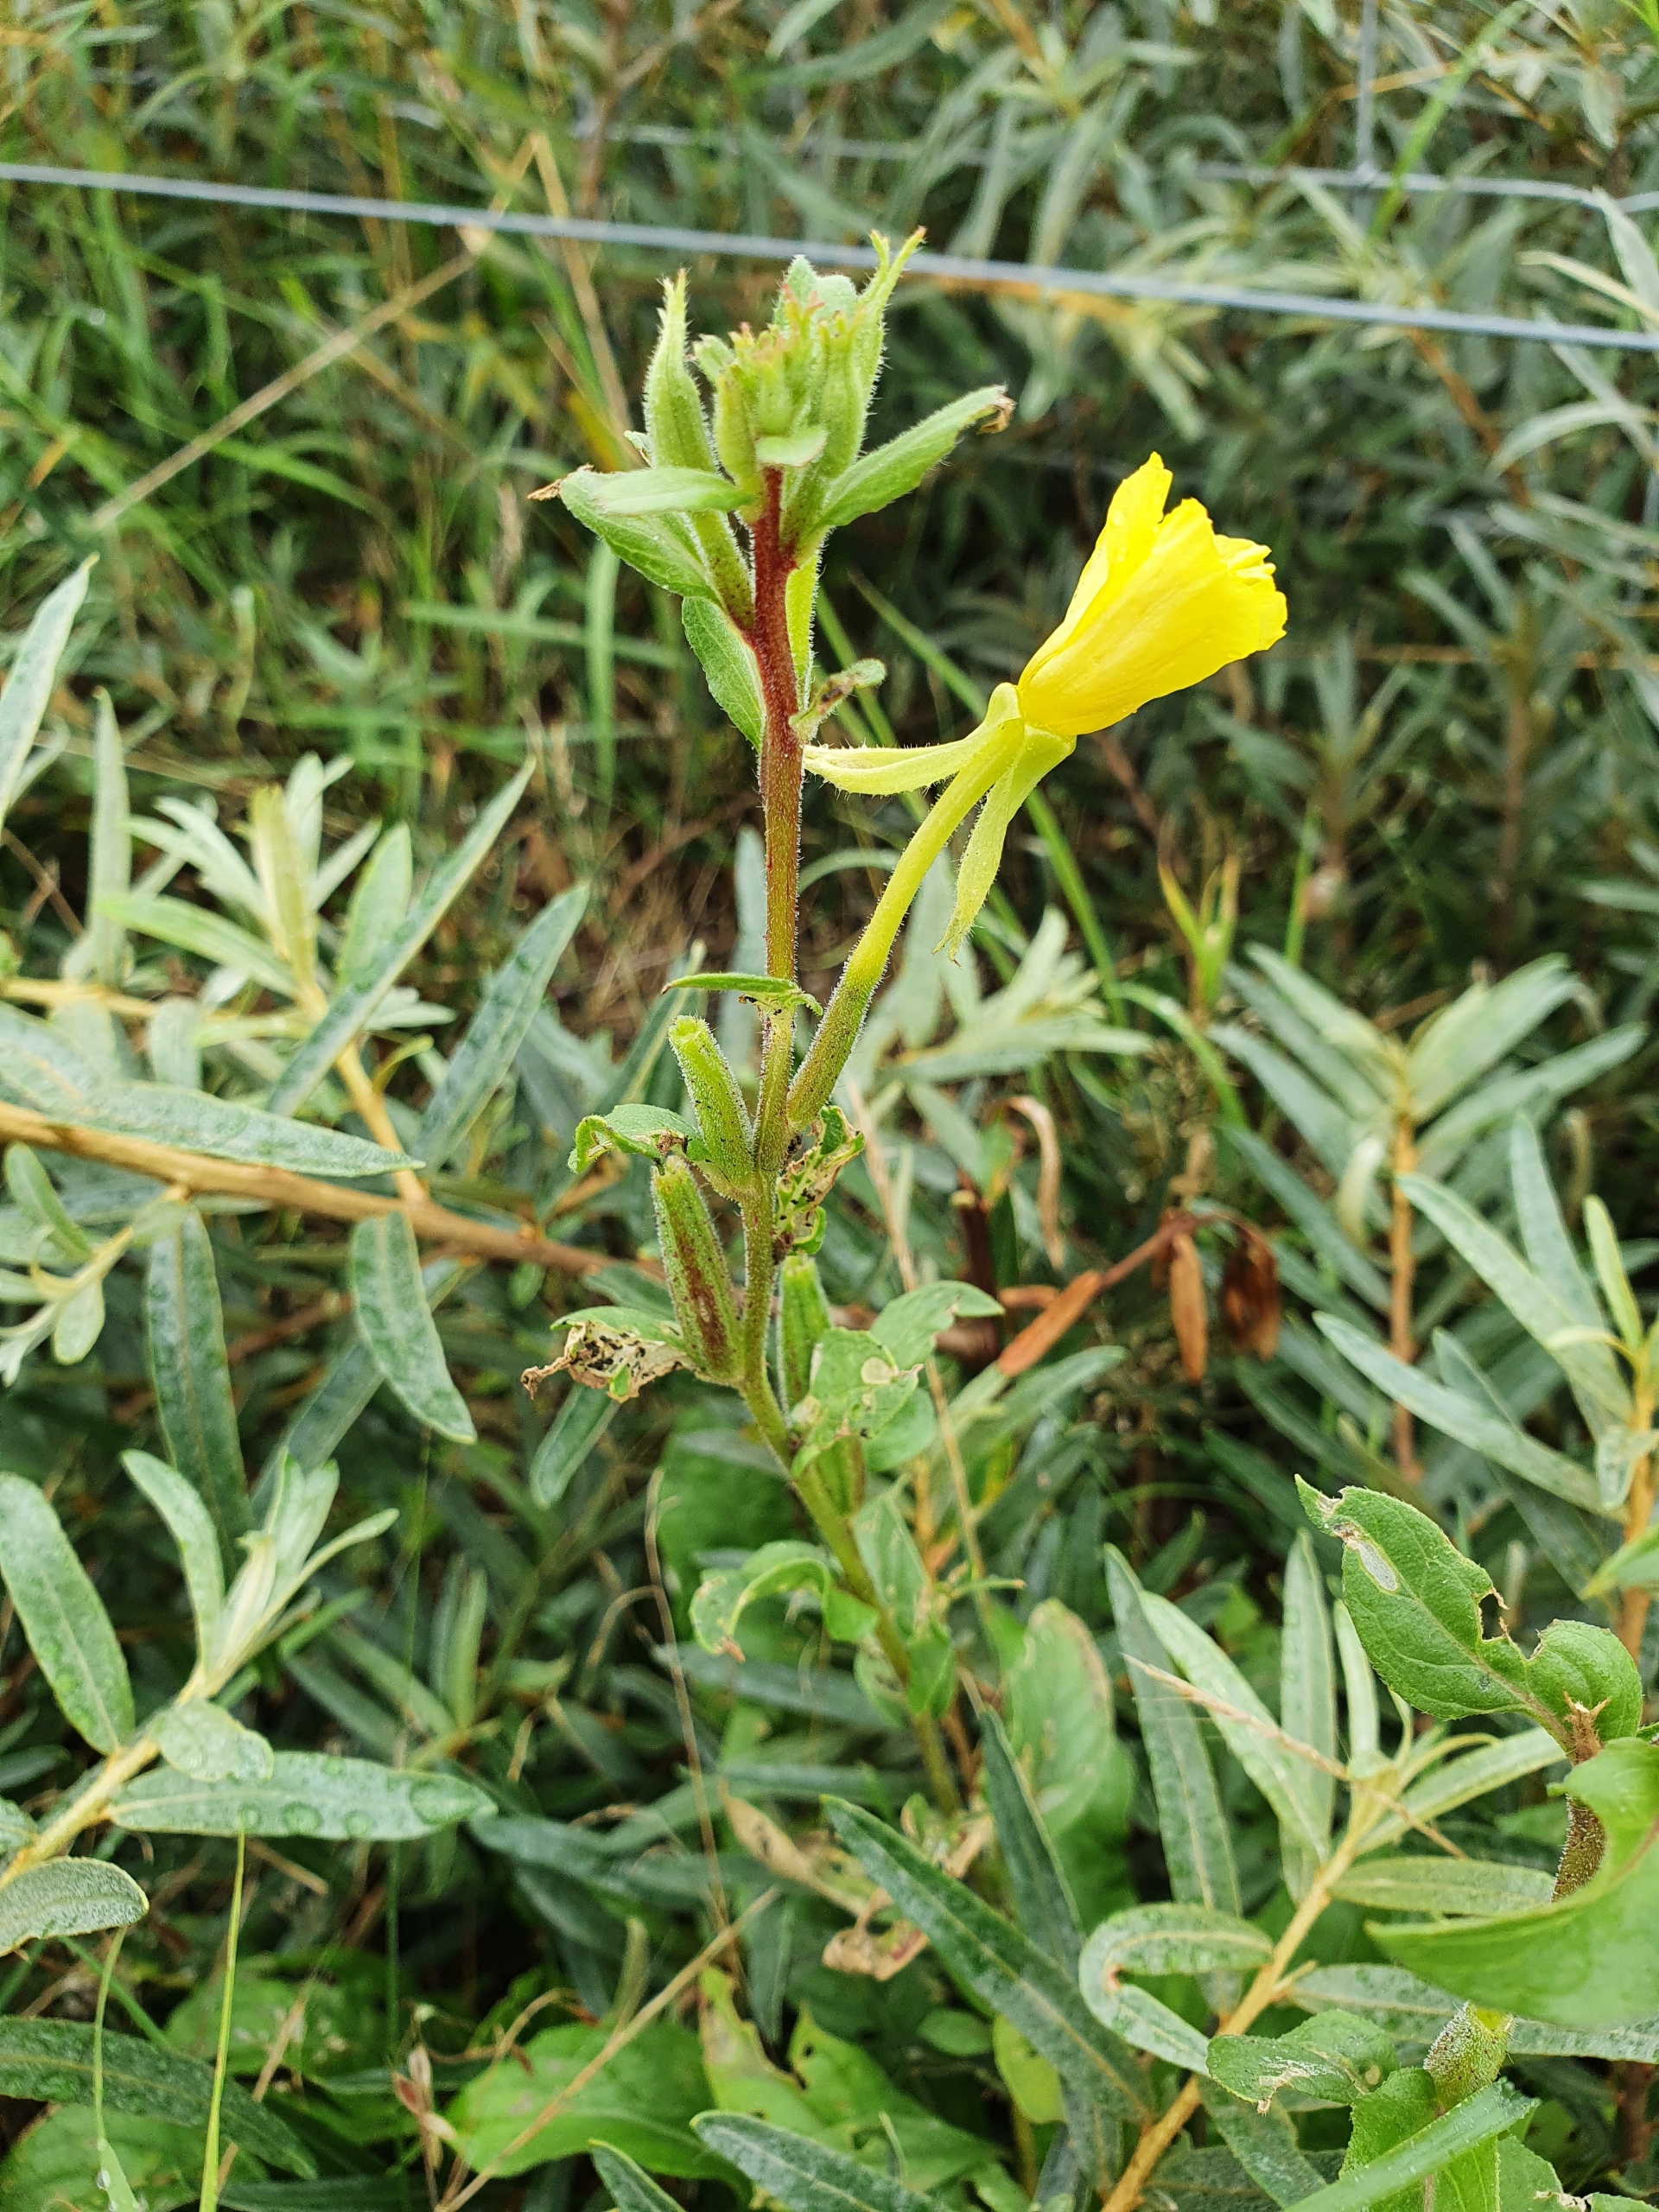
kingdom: Plantae
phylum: Tracheophyta
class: Magnoliopsida
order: Myrtales
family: Onagraceae
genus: Oenothera
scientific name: Oenothera biennis
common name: Rødfrugtet natlys
